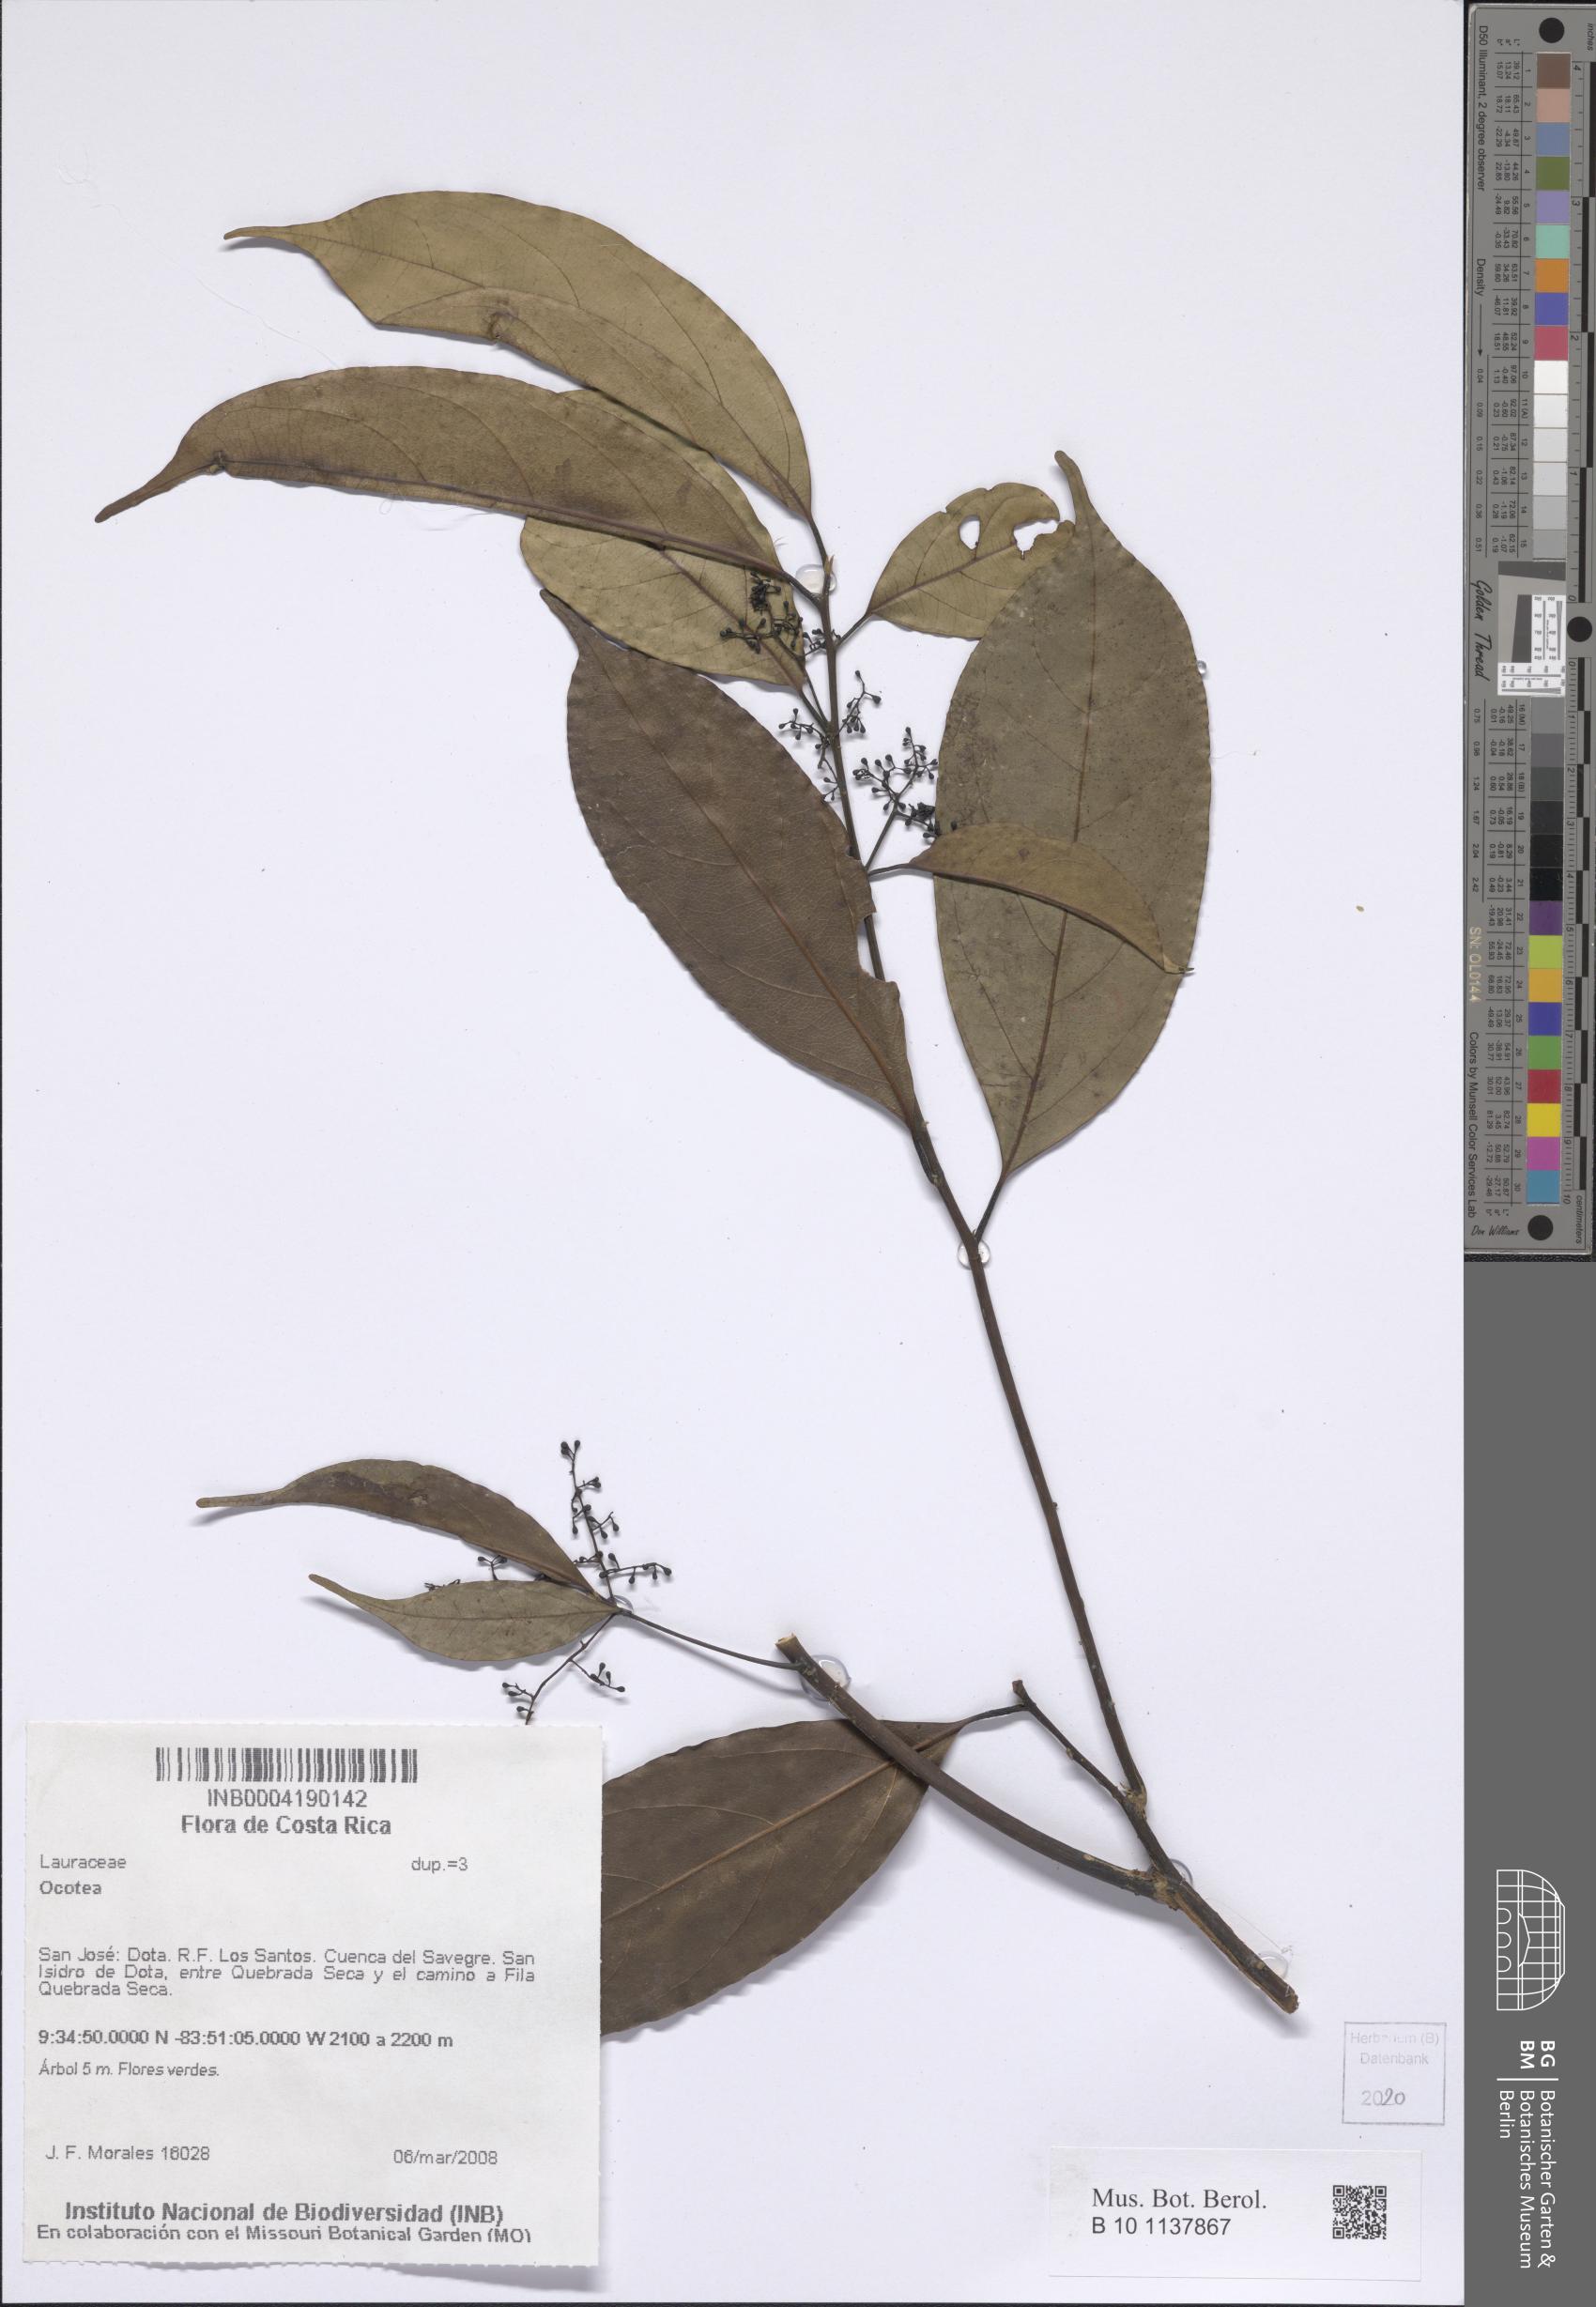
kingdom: Plantae
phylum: Tracheophyta
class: Magnoliopsida
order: Laurales
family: Lauraceae
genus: Ocotea
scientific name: Ocotea
